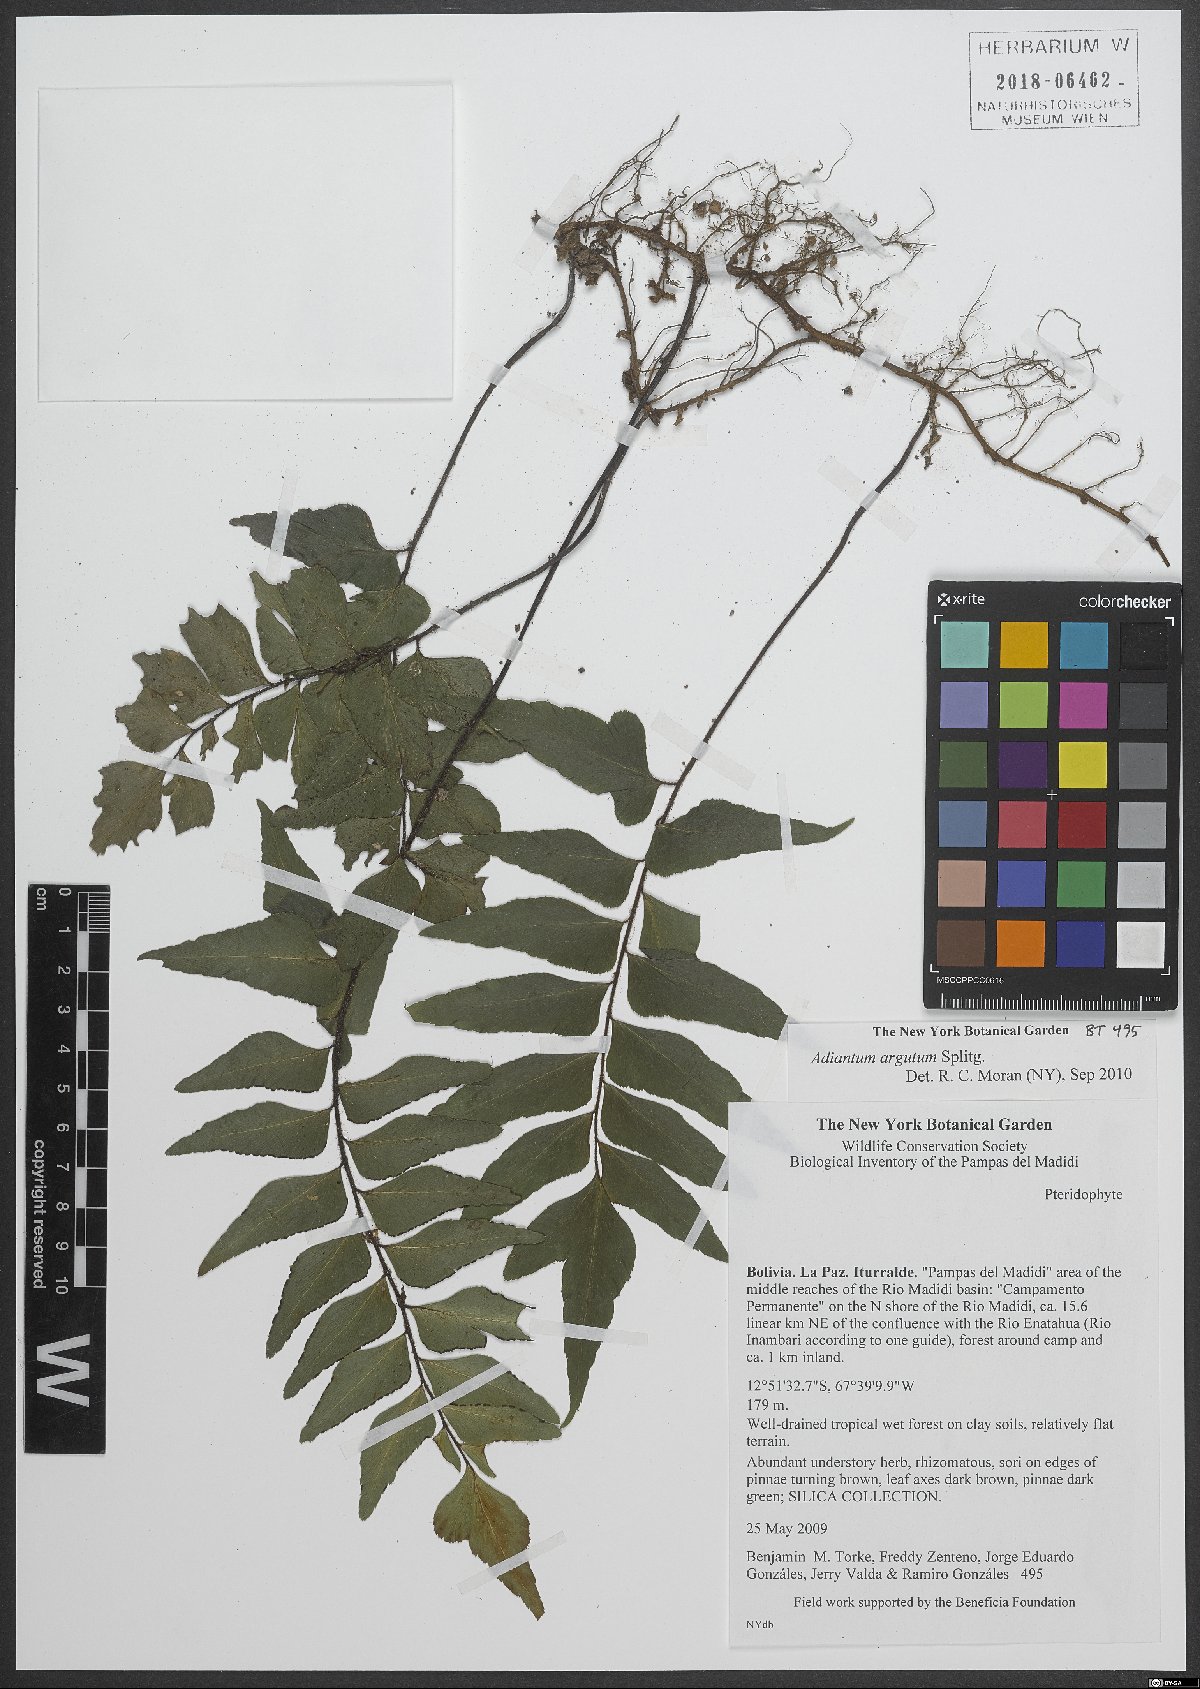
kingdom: Plantae
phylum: Tracheophyta
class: Polypodiopsida
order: Polypodiales
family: Pteridaceae
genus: Adiantum
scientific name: Adiantum argutum
